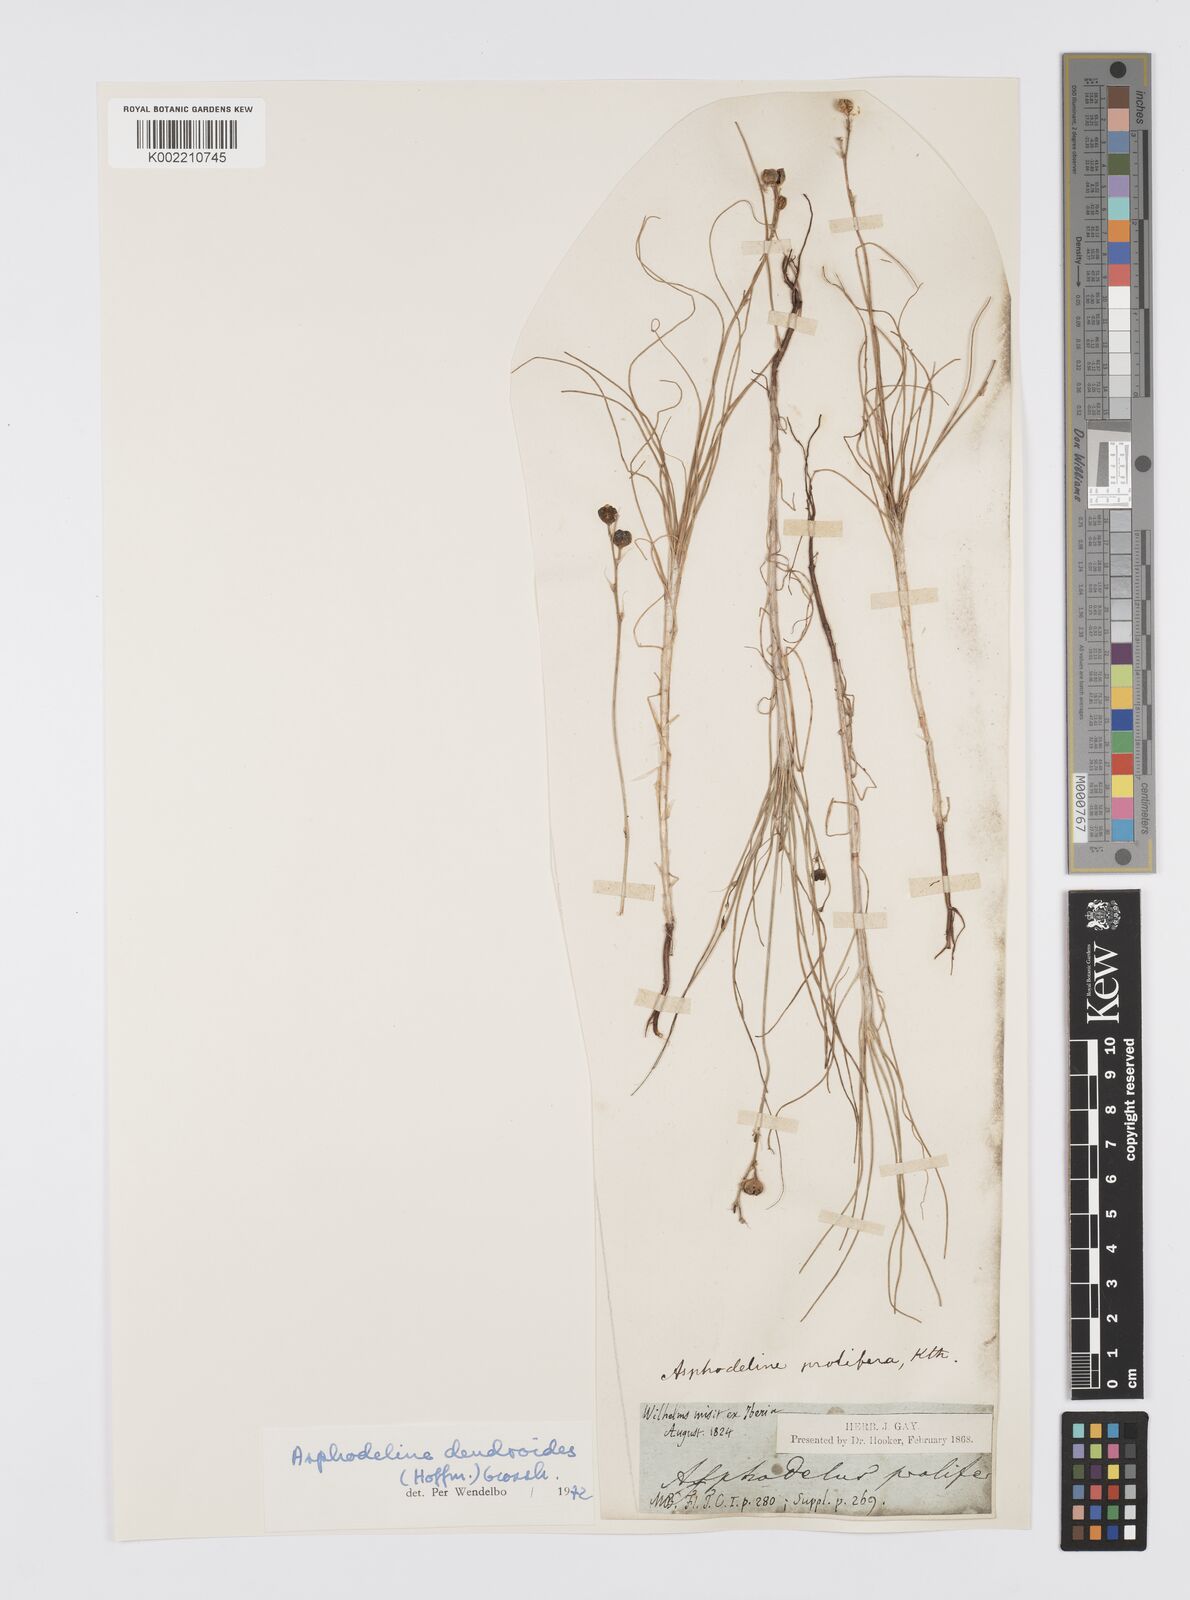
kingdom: Plantae
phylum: Tracheophyta
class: Liliopsida
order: Asparagales
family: Asphodelaceae
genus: Asphodeline
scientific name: Asphodeline prolifera
